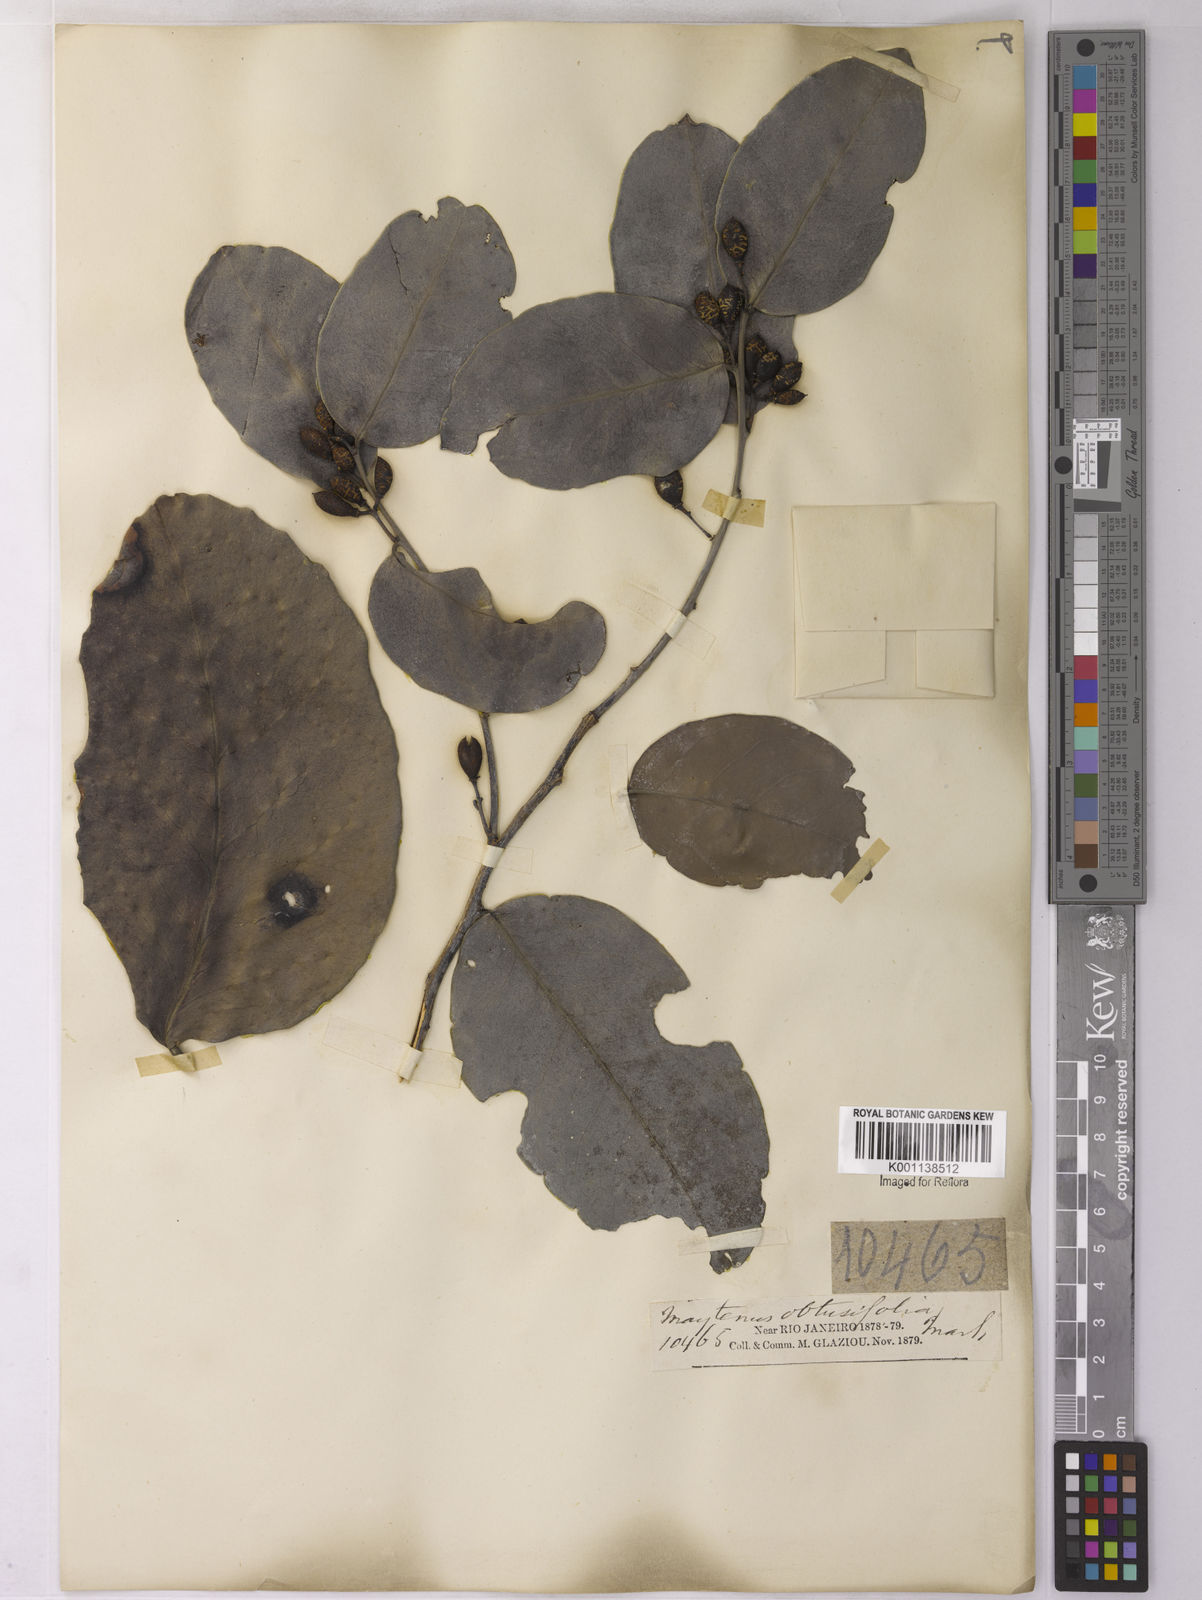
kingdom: Plantae
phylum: Tracheophyta
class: Magnoliopsida
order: Celastrales
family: Celastraceae
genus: Monteverdia
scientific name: Monteverdia obtusifolia
